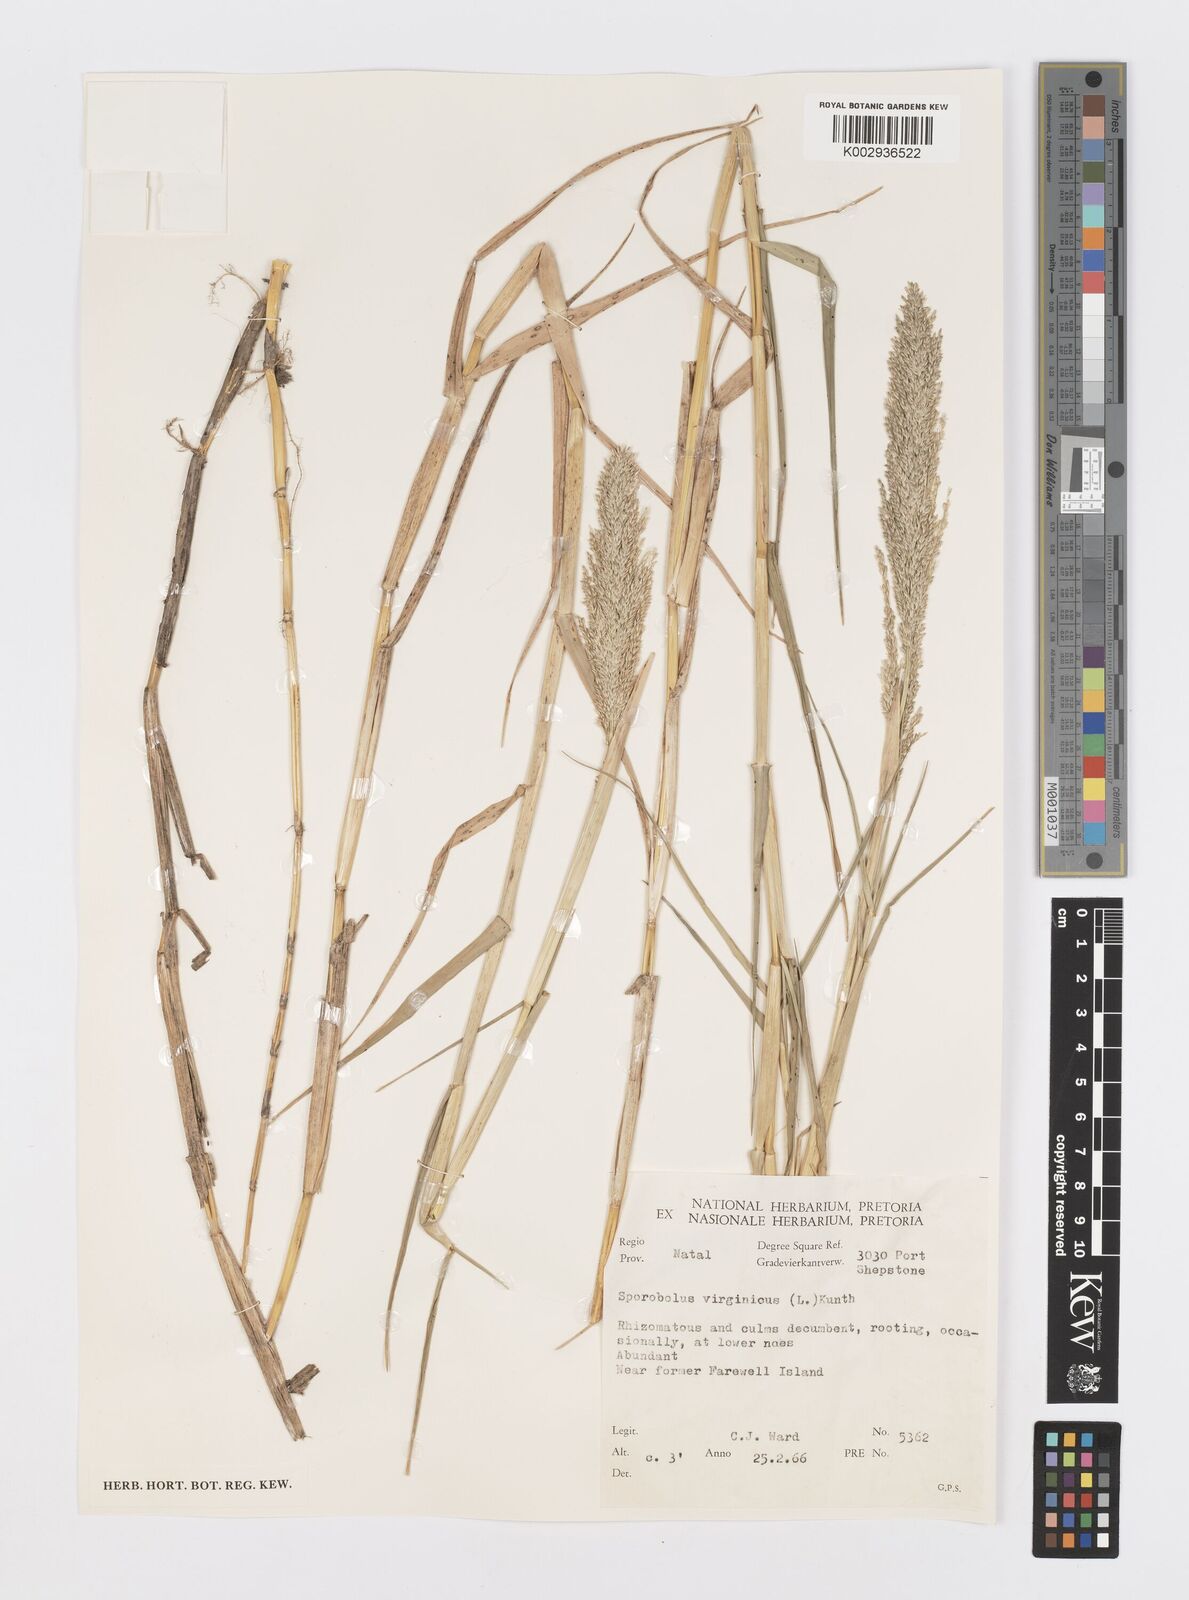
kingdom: Plantae
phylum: Tracheophyta
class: Liliopsida
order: Poales
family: Poaceae
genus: Sporobolus
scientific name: Sporobolus virginicus
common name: Beach dropseed
